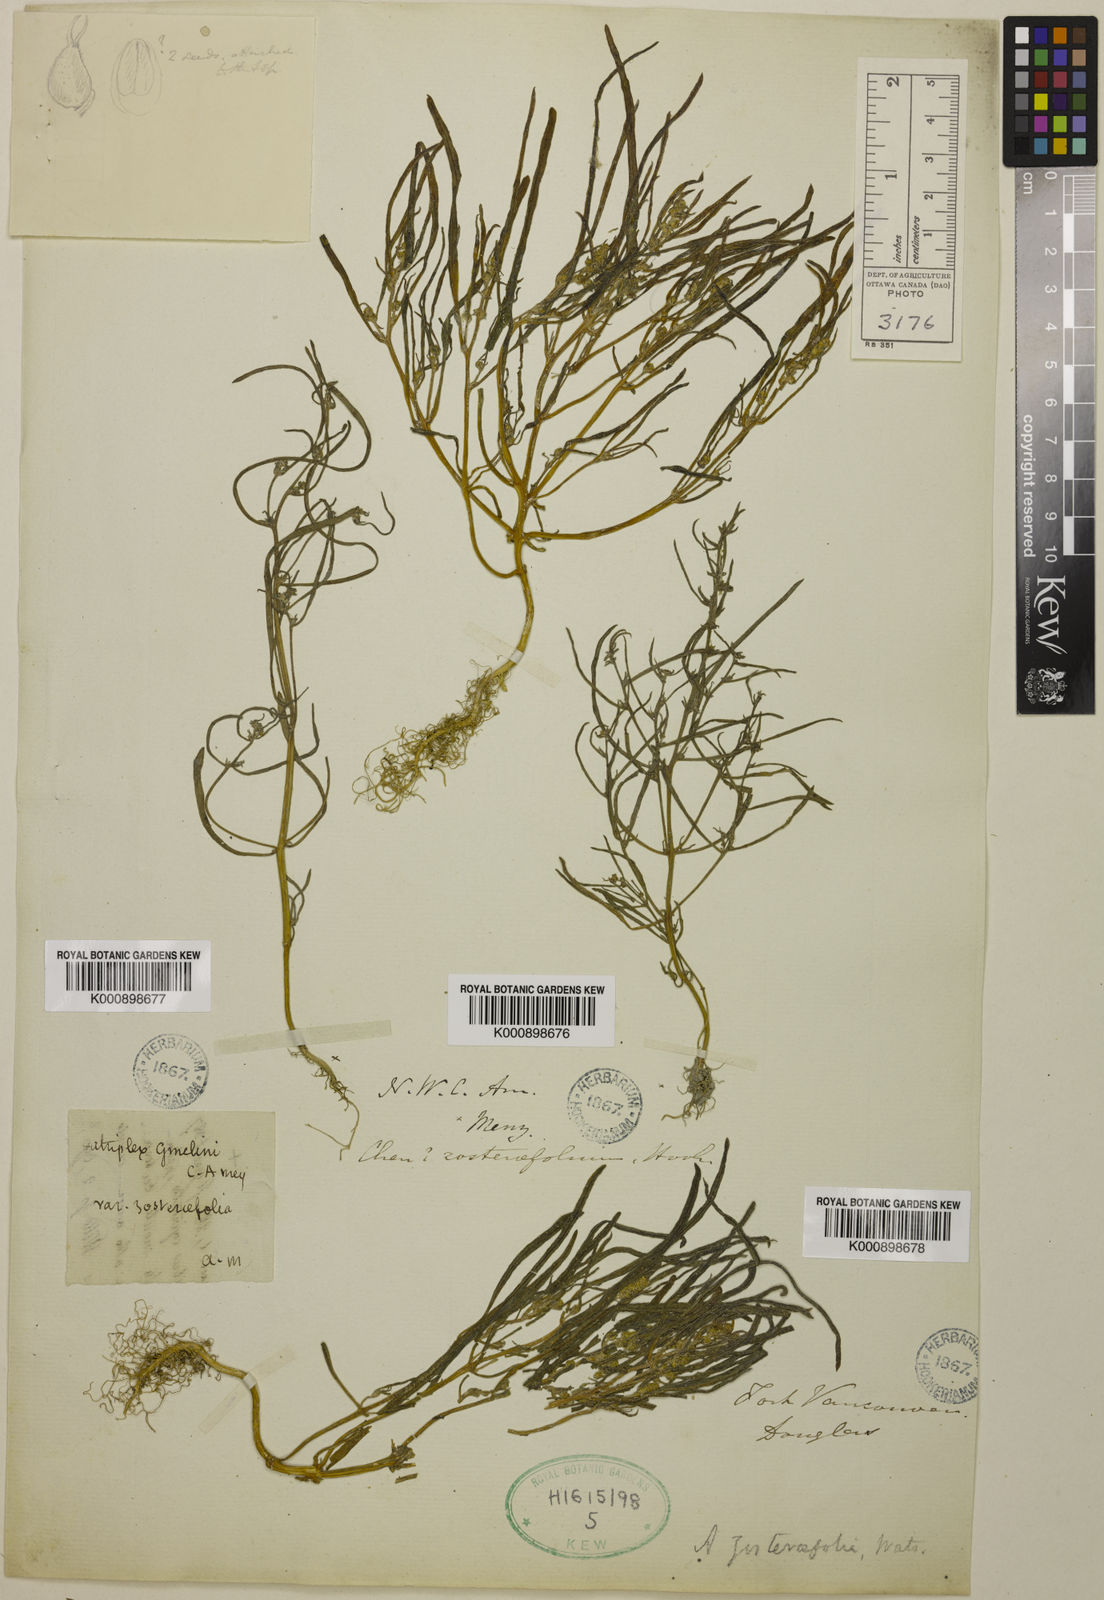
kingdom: Plantae
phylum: Tracheophyta
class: Magnoliopsida
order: Caryophyllales
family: Amaranthaceae
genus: Atriplex
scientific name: Atriplex gmelinii
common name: Gmelin's orach
